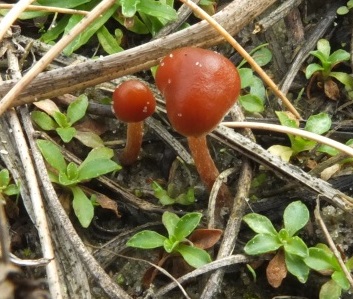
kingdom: Fungi
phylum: Basidiomycota
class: Agaricomycetes
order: Agaricales
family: Strophariaceae
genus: Deconica
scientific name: Deconica montana
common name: rødbrun stråhat
